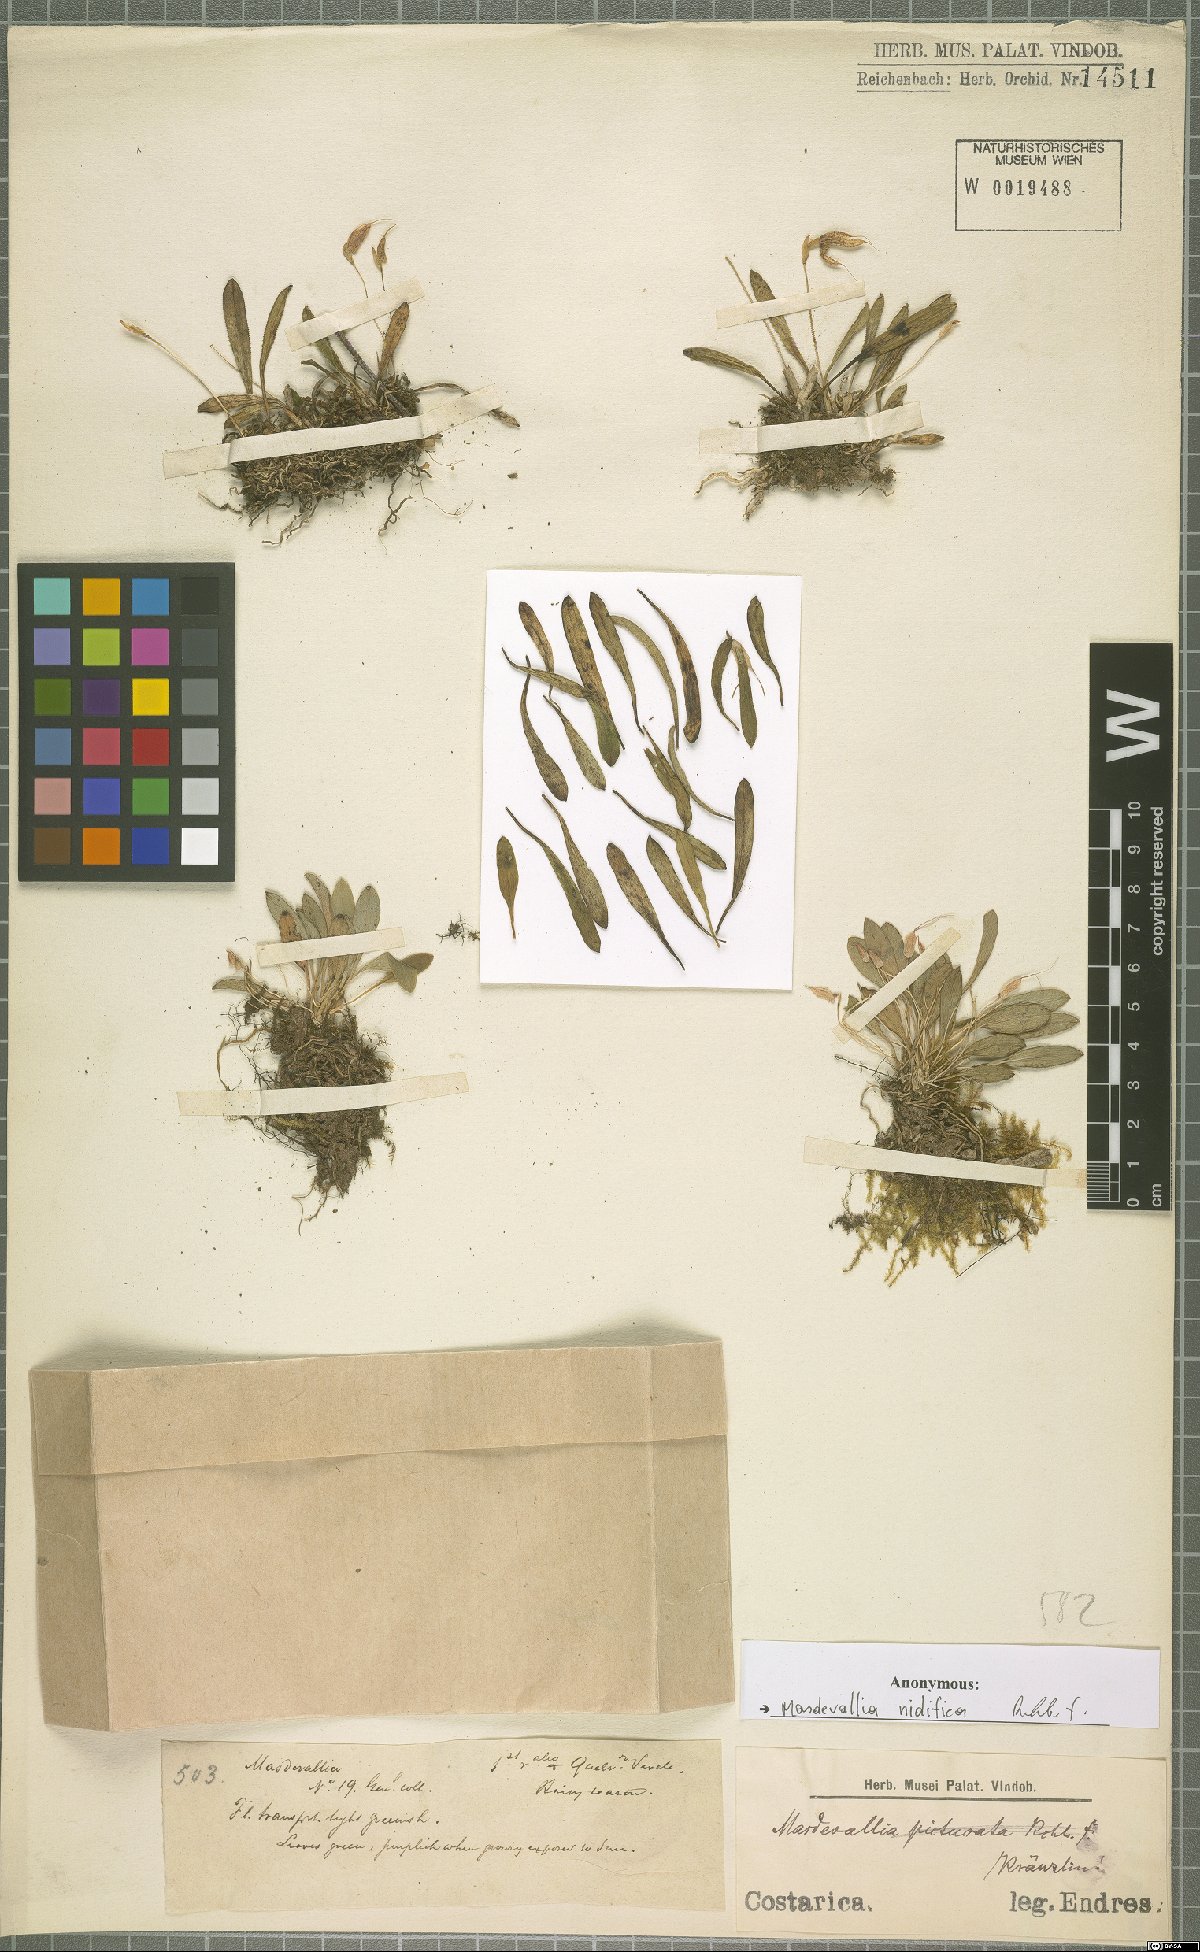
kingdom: Plantae
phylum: Tracheophyta
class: Liliopsida
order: Asparagales
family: Orchidaceae
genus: Masdevallia
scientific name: Masdevallia nidifica
